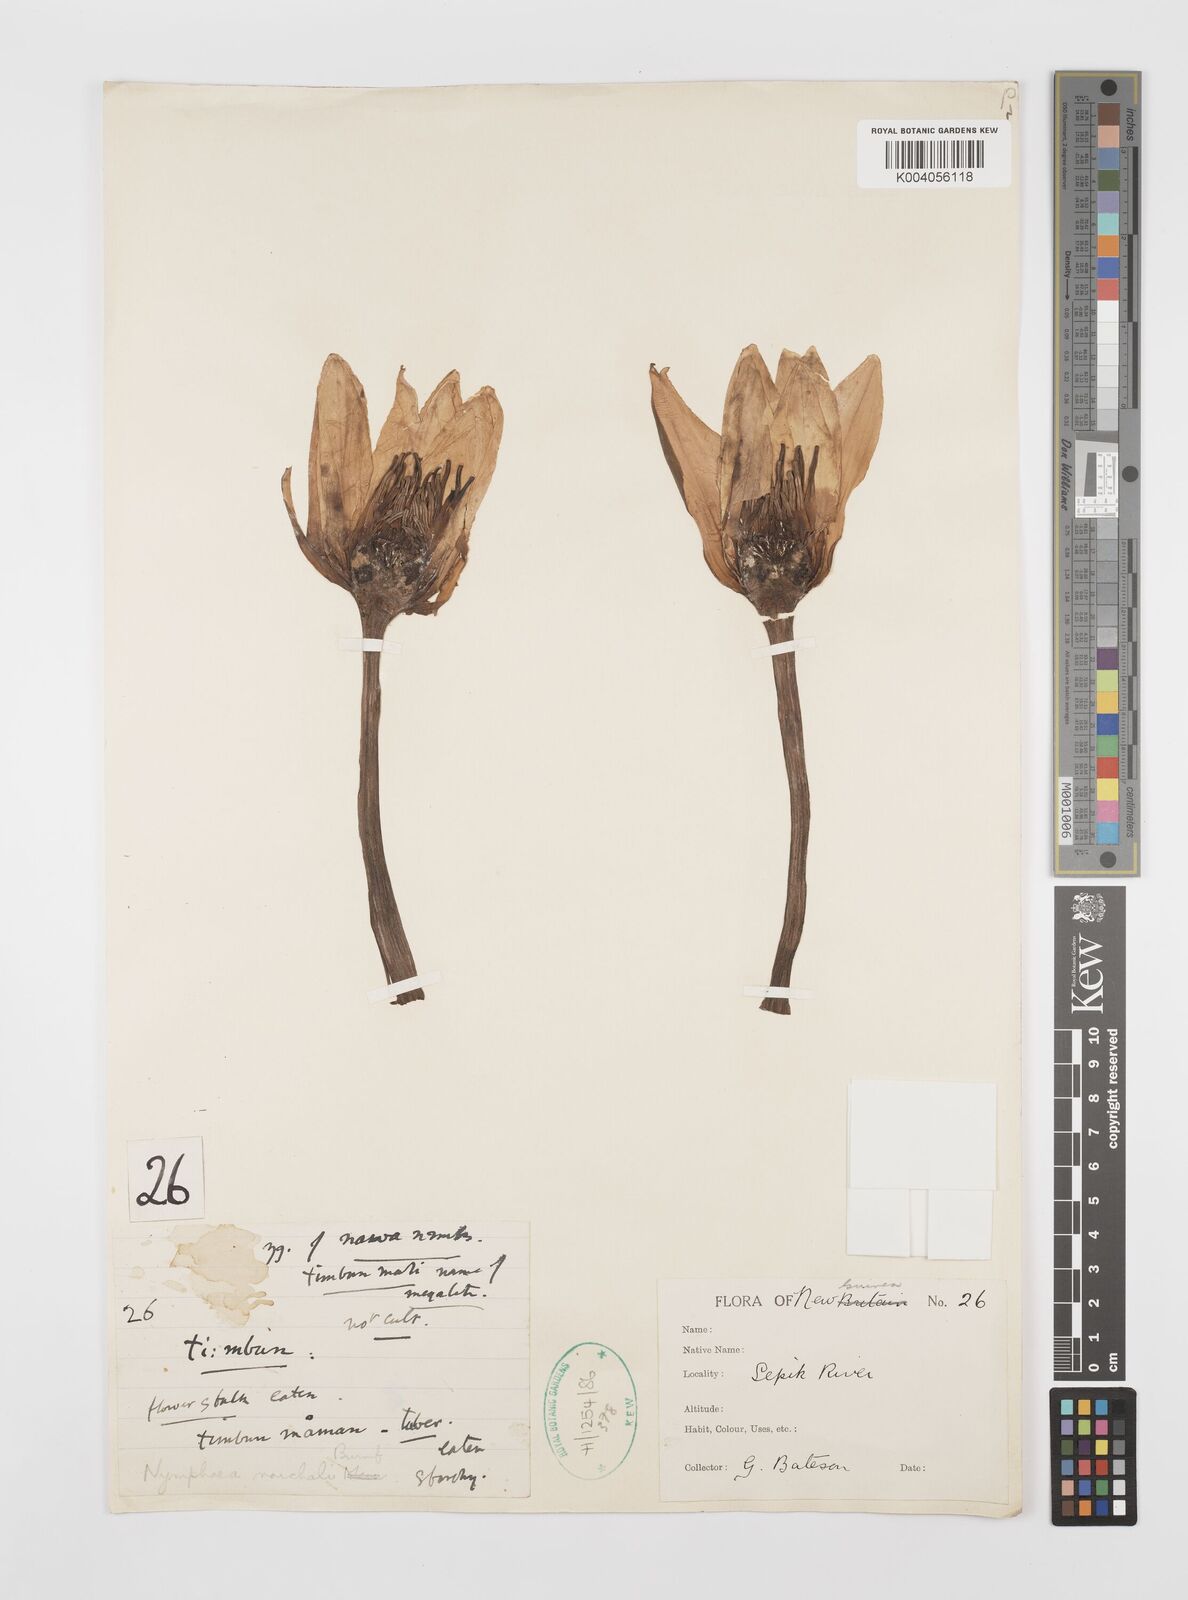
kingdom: Plantae
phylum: Tracheophyta
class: Magnoliopsida
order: Nymphaeales
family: Nymphaeaceae
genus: Nymphaea
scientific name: Nymphaea nouchali
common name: Blue lotus
